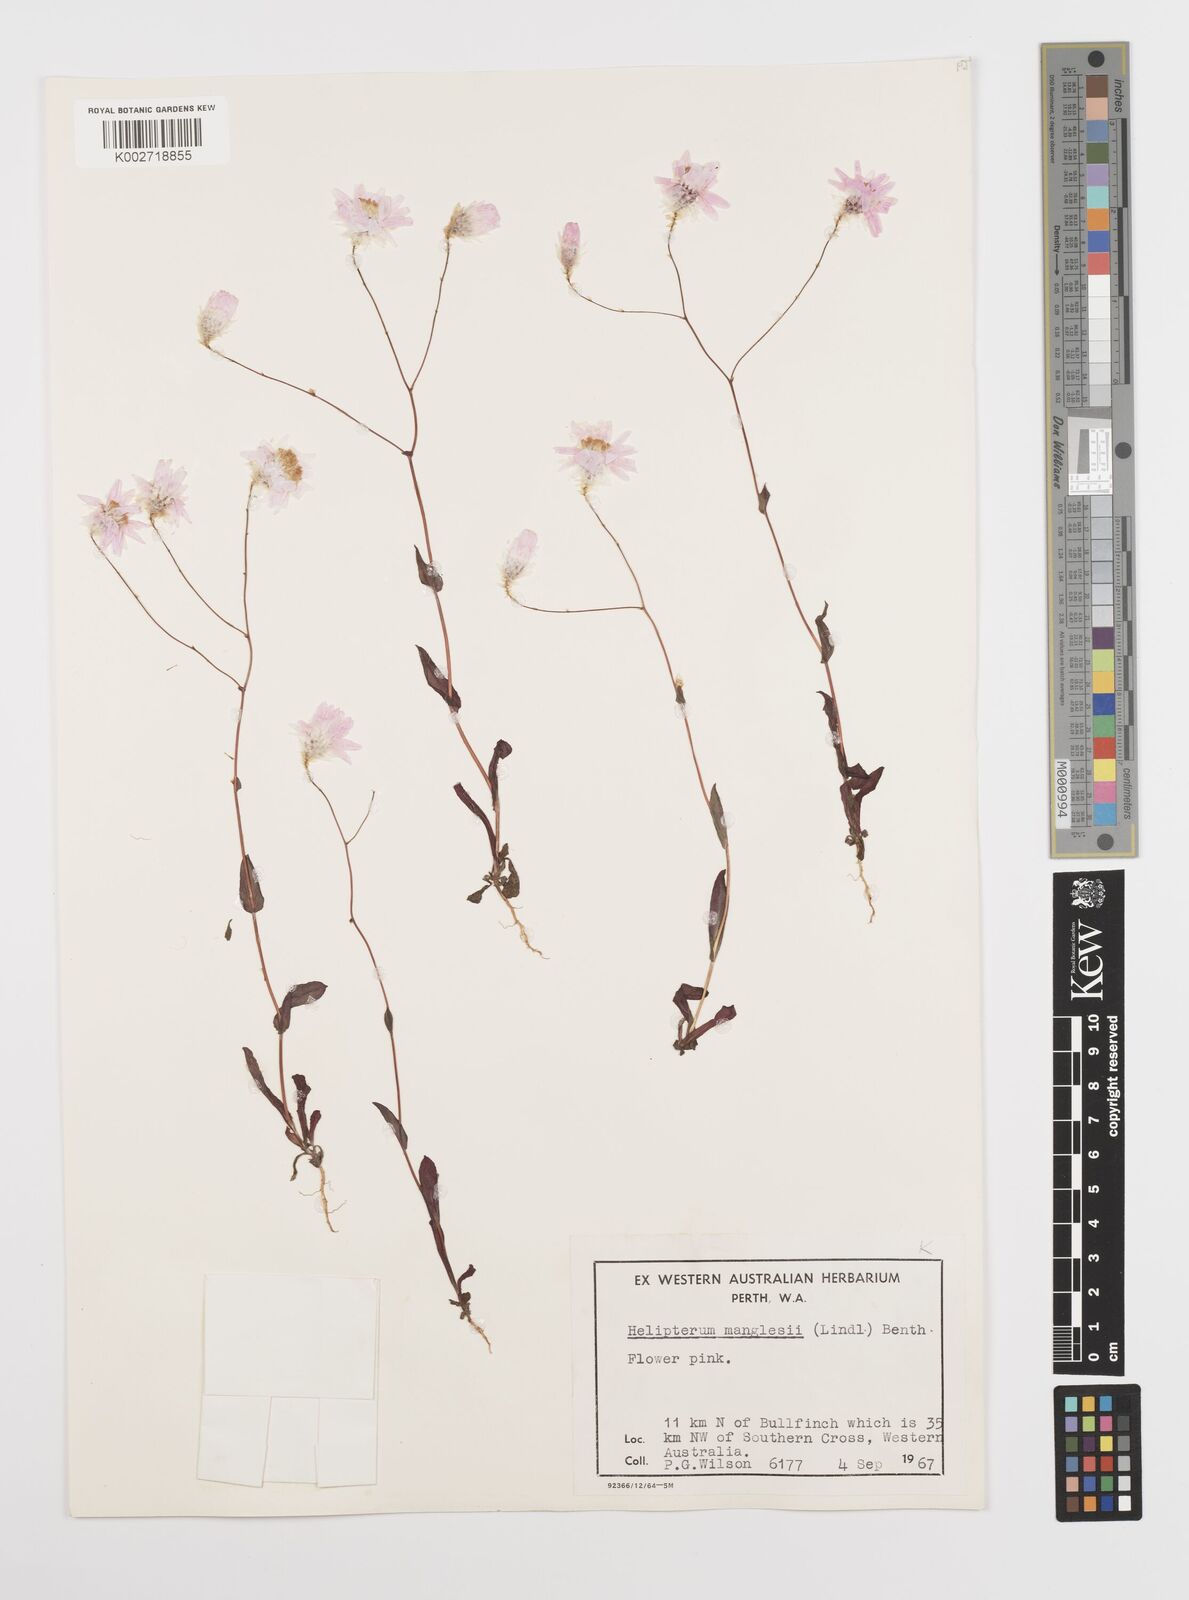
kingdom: Plantae
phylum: Tracheophyta
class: Magnoliopsida
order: Asterales
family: Asteraceae
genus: Rhodanthe
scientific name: Rhodanthe manglesii
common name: Pink sunray
